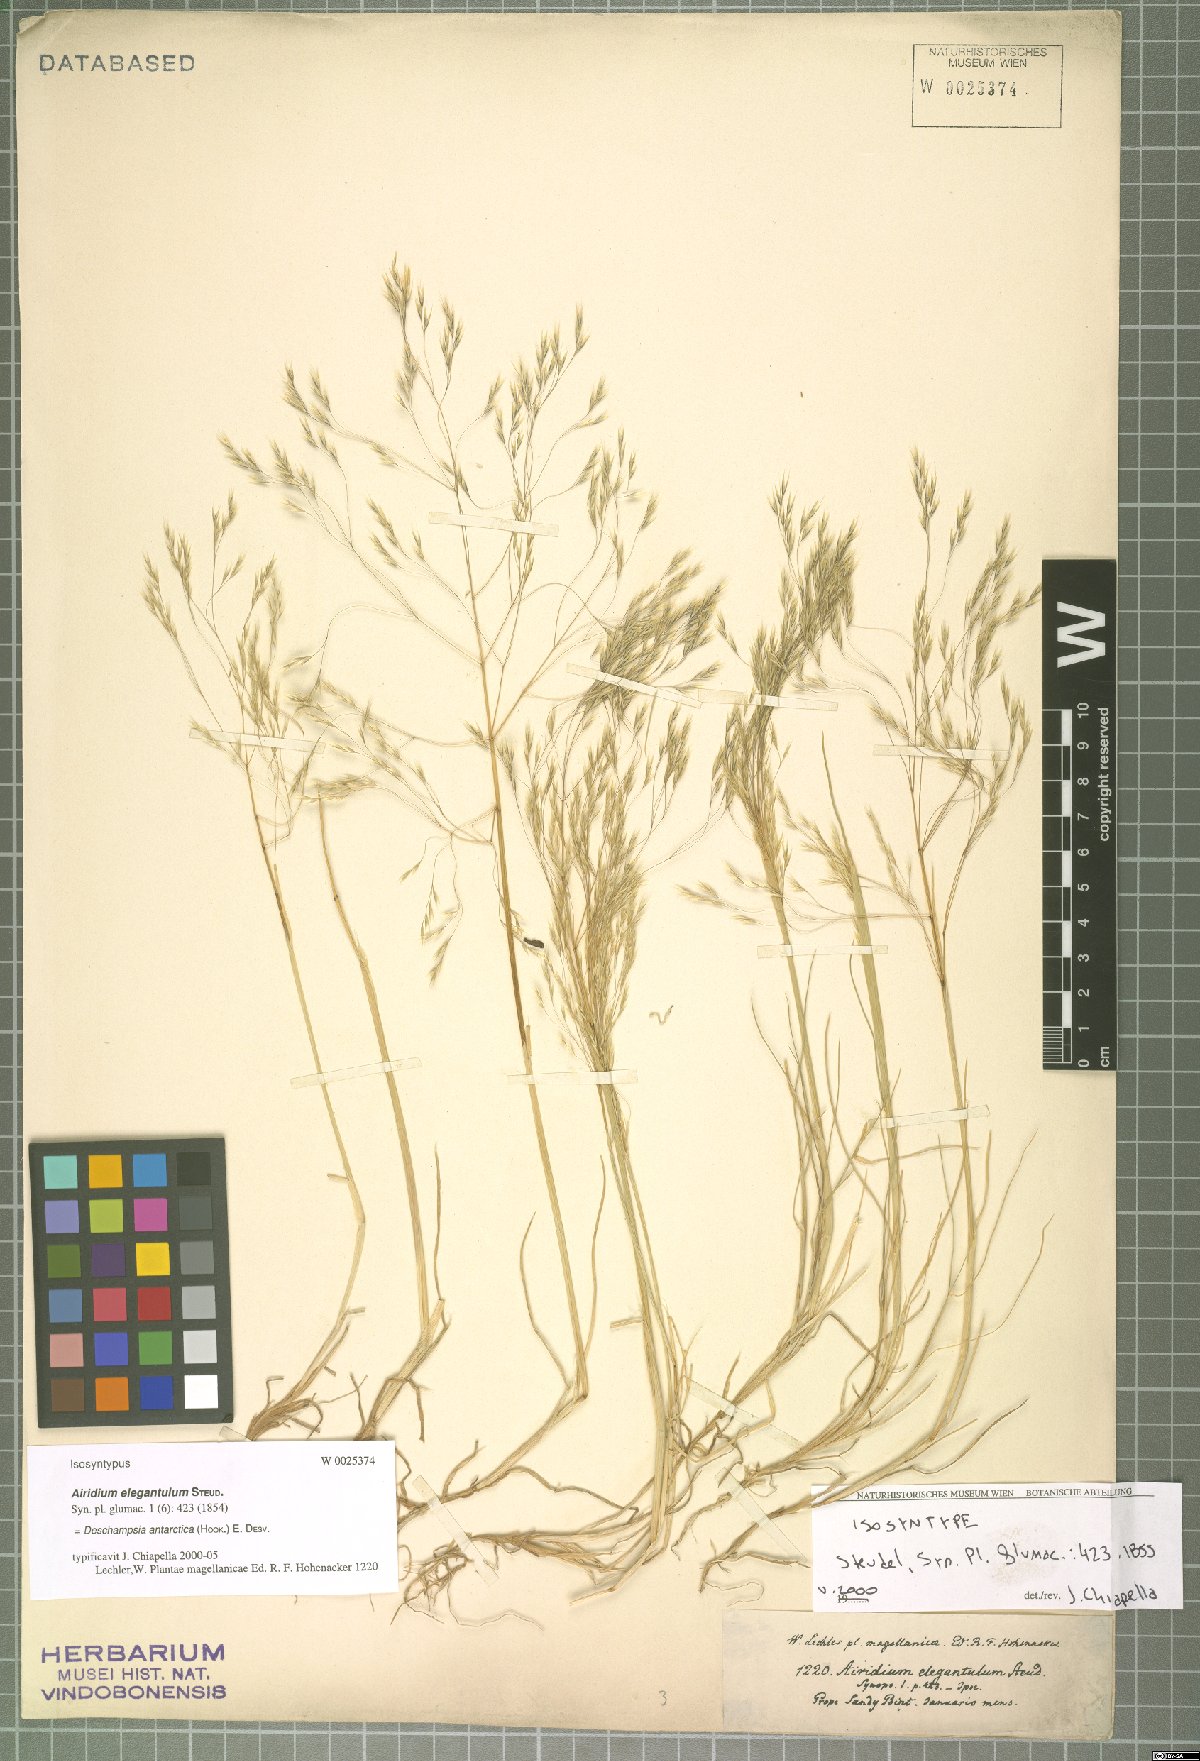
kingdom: Plantae
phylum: Tracheophyta
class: Liliopsida
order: Poales
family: Poaceae
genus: Deschampsia
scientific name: Deschampsia antarctica
